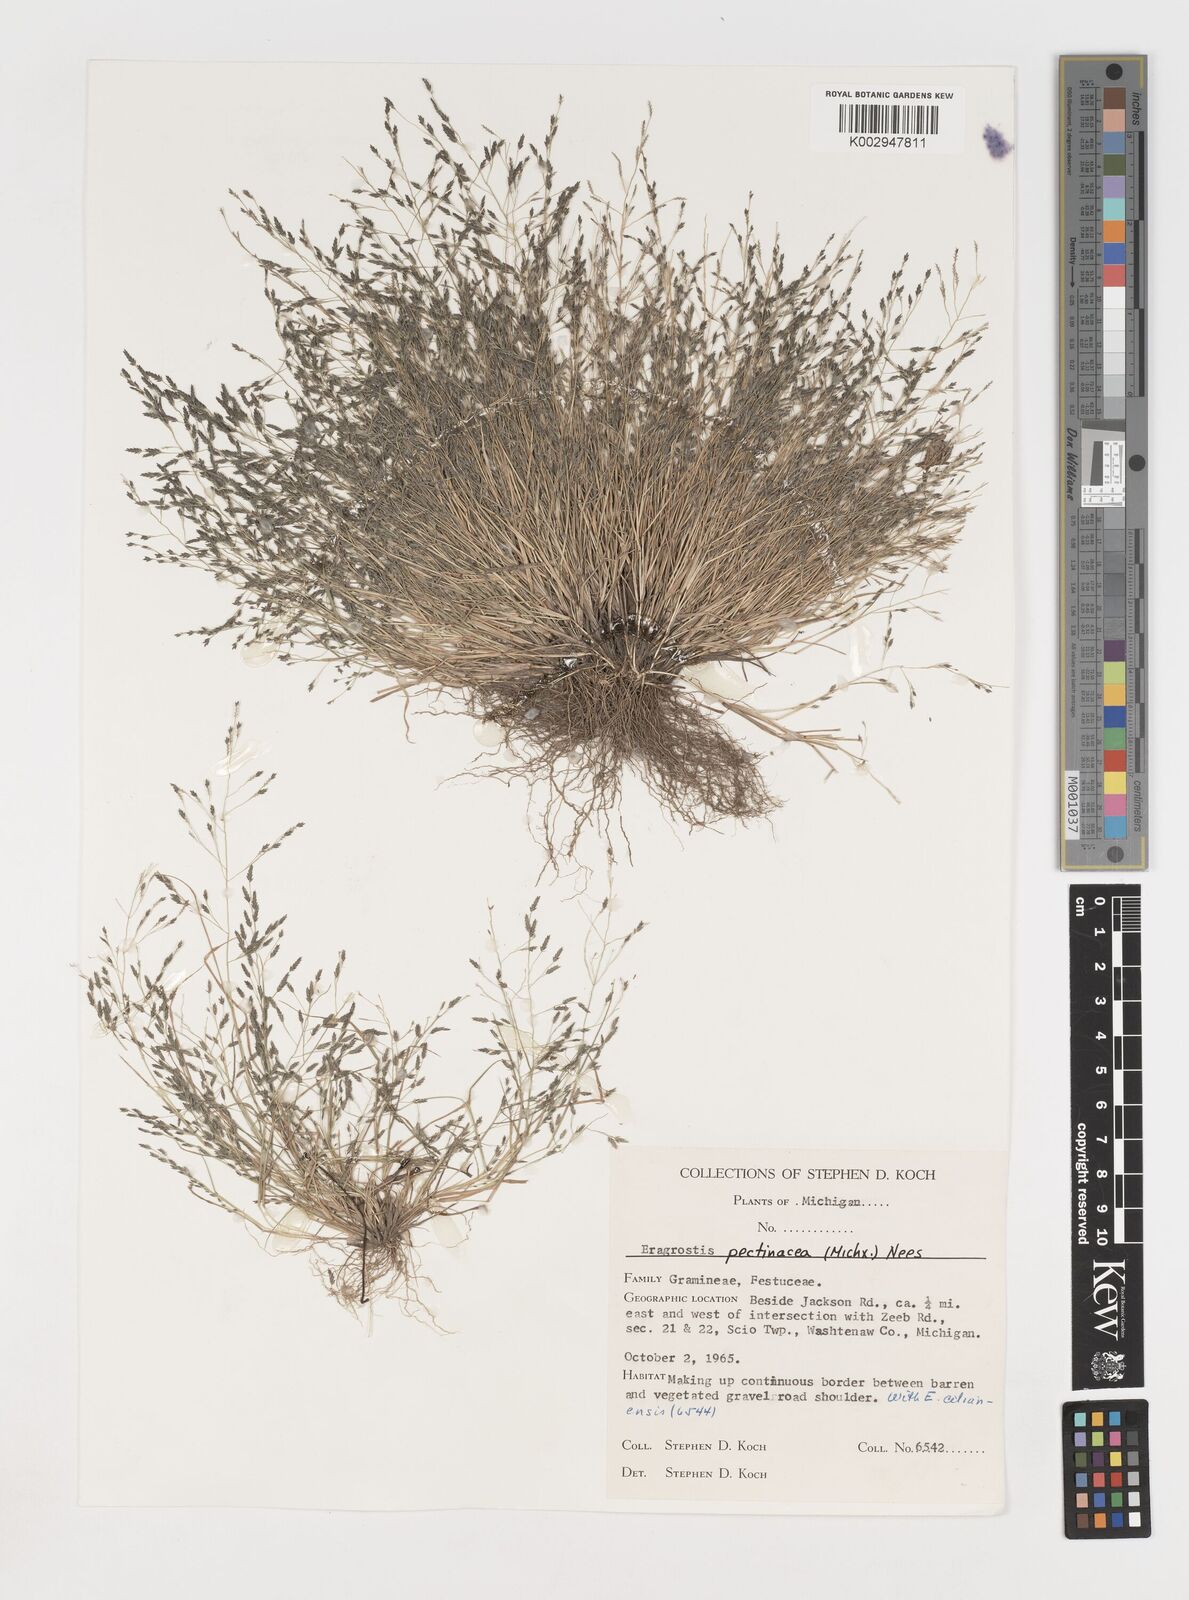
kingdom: Plantae
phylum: Tracheophyta
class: Liliopsida
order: Poales
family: Poaceae
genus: Eragrostis
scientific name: Eragrostis pectinacea
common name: Tufted lovegrass
